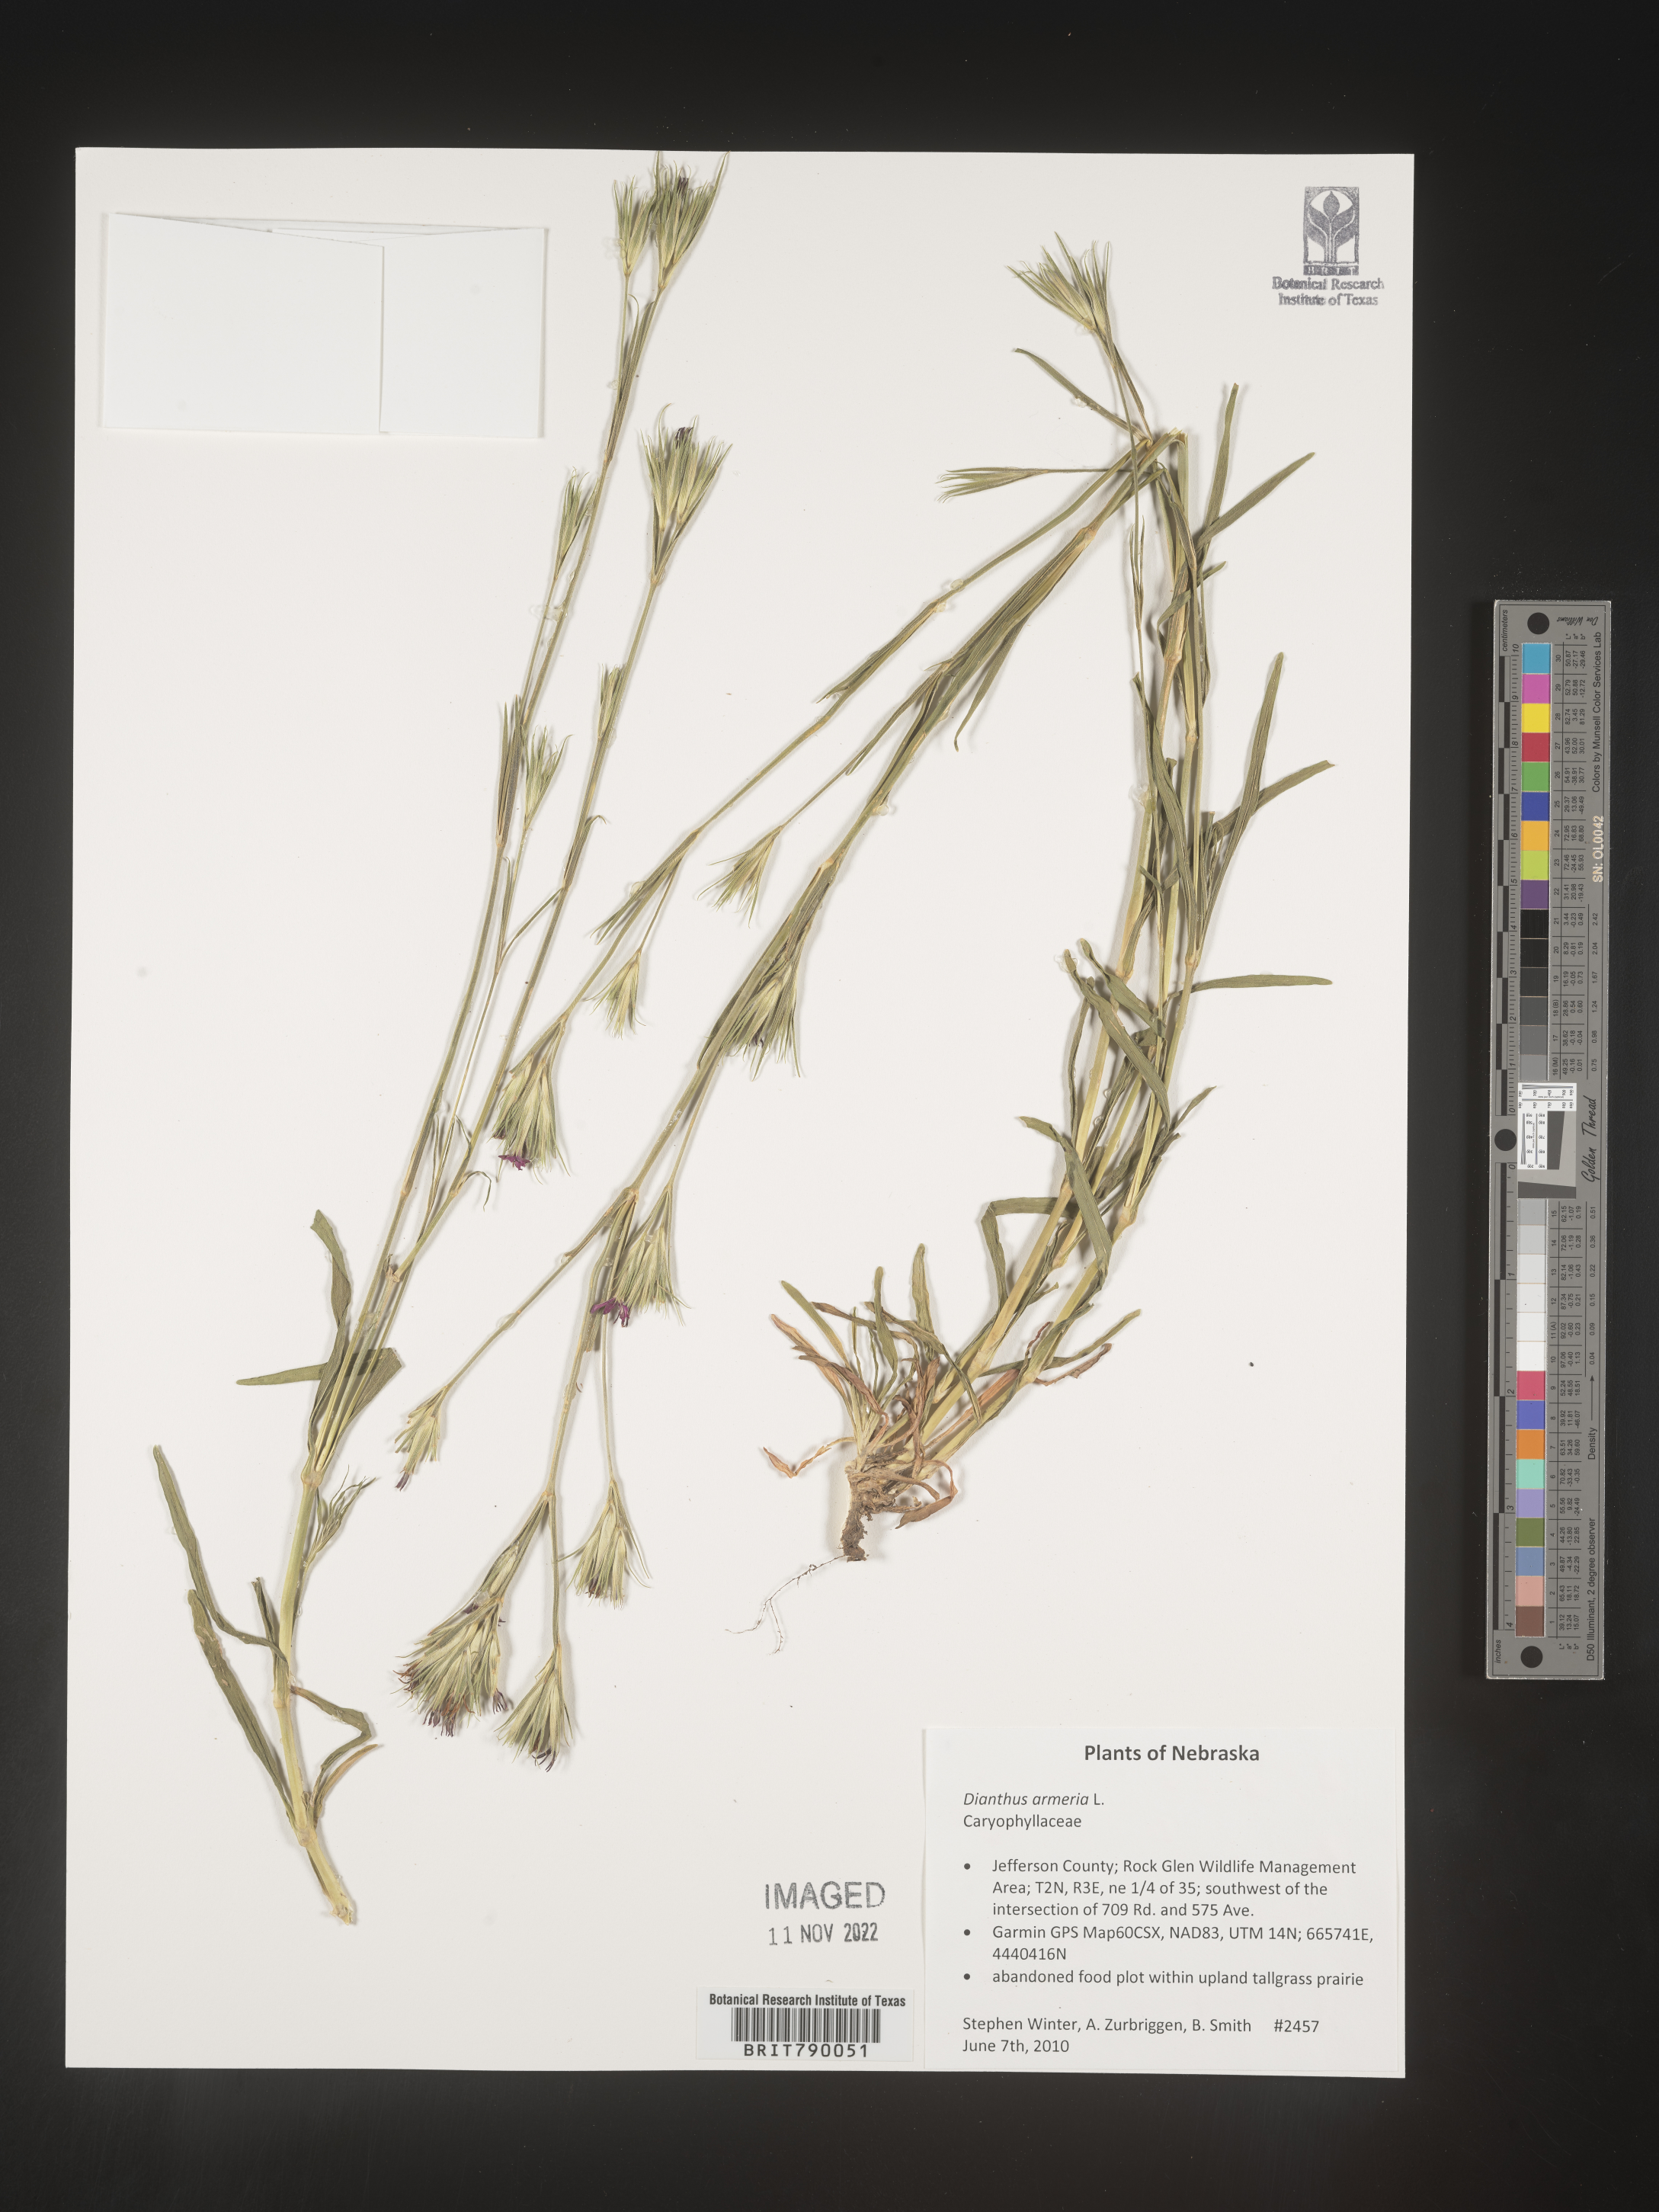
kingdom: Plantae
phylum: Tracheophyta
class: Magnoliopsida
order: Caryophyllales
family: Caryophyllaceae
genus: Dianthus
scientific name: Dianthus armeria
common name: Deptford pink
